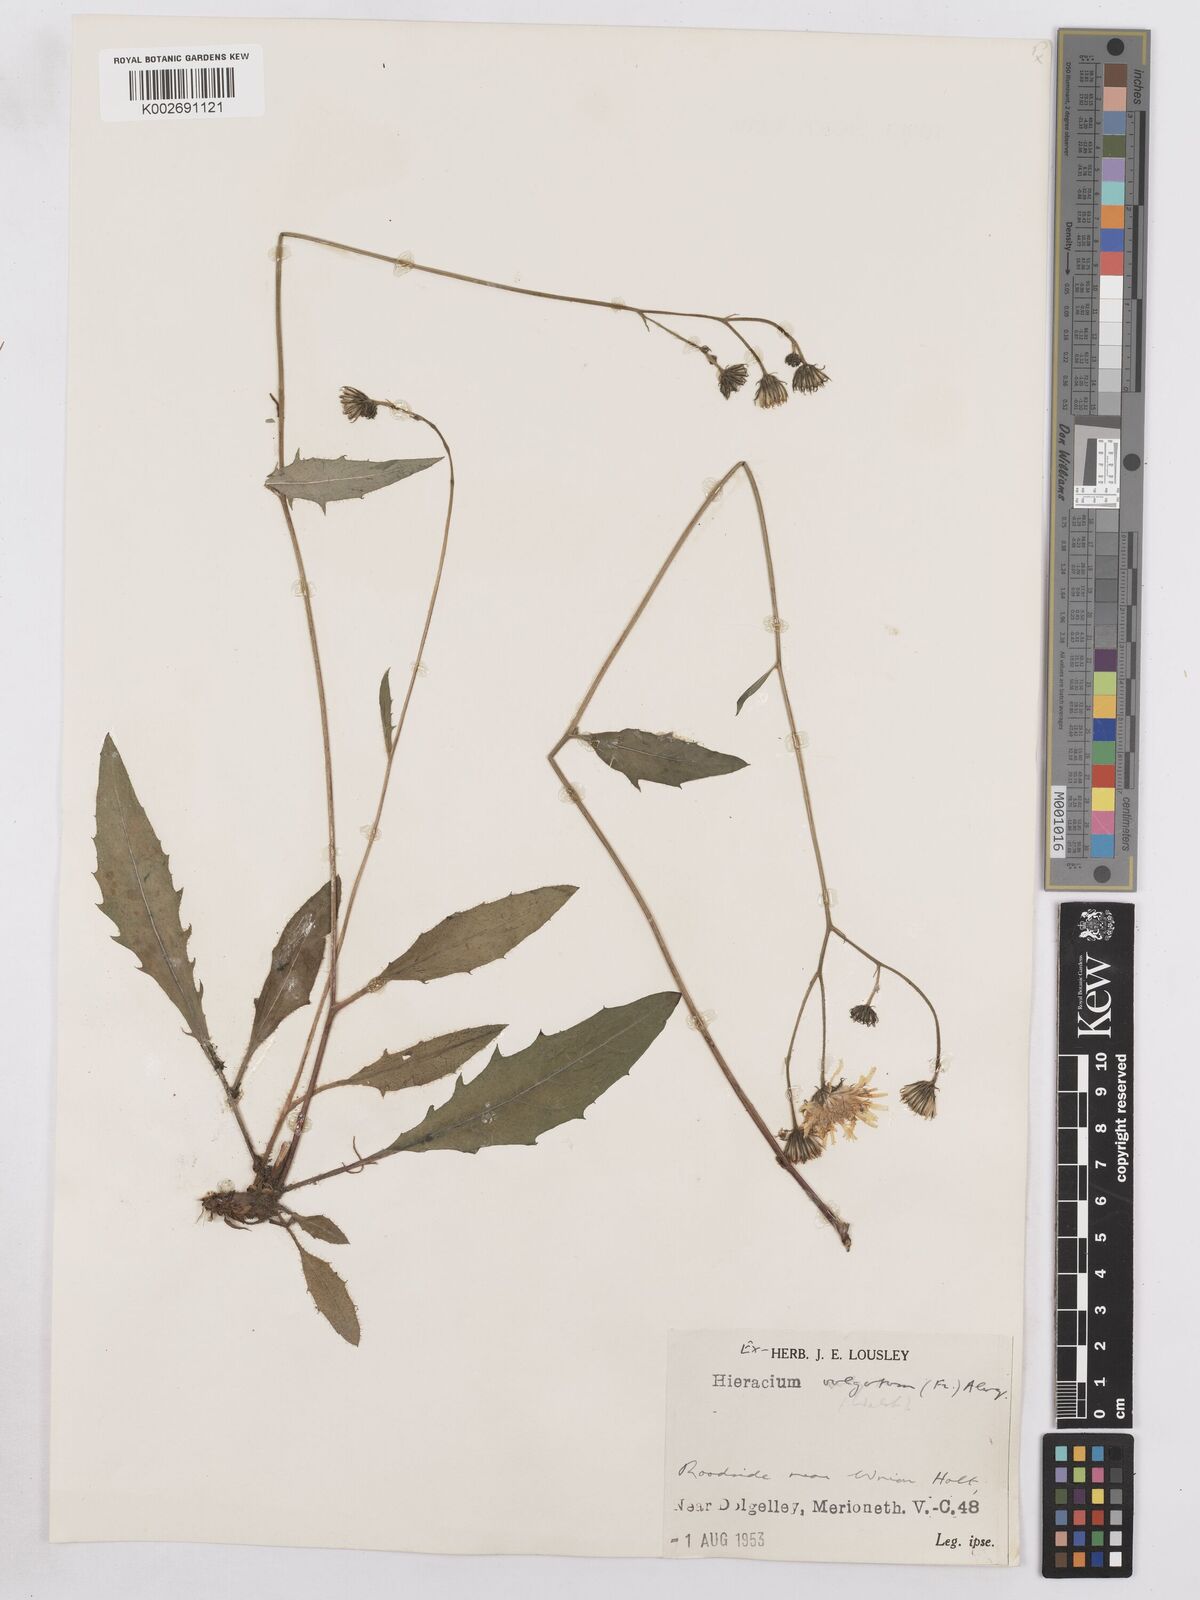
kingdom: Plantae
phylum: Tracheophyta
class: Magnoliopsida
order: Asterales
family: Asteraceae
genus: Hieracium
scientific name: Hieracium lachenalii
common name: Common hawkweed
